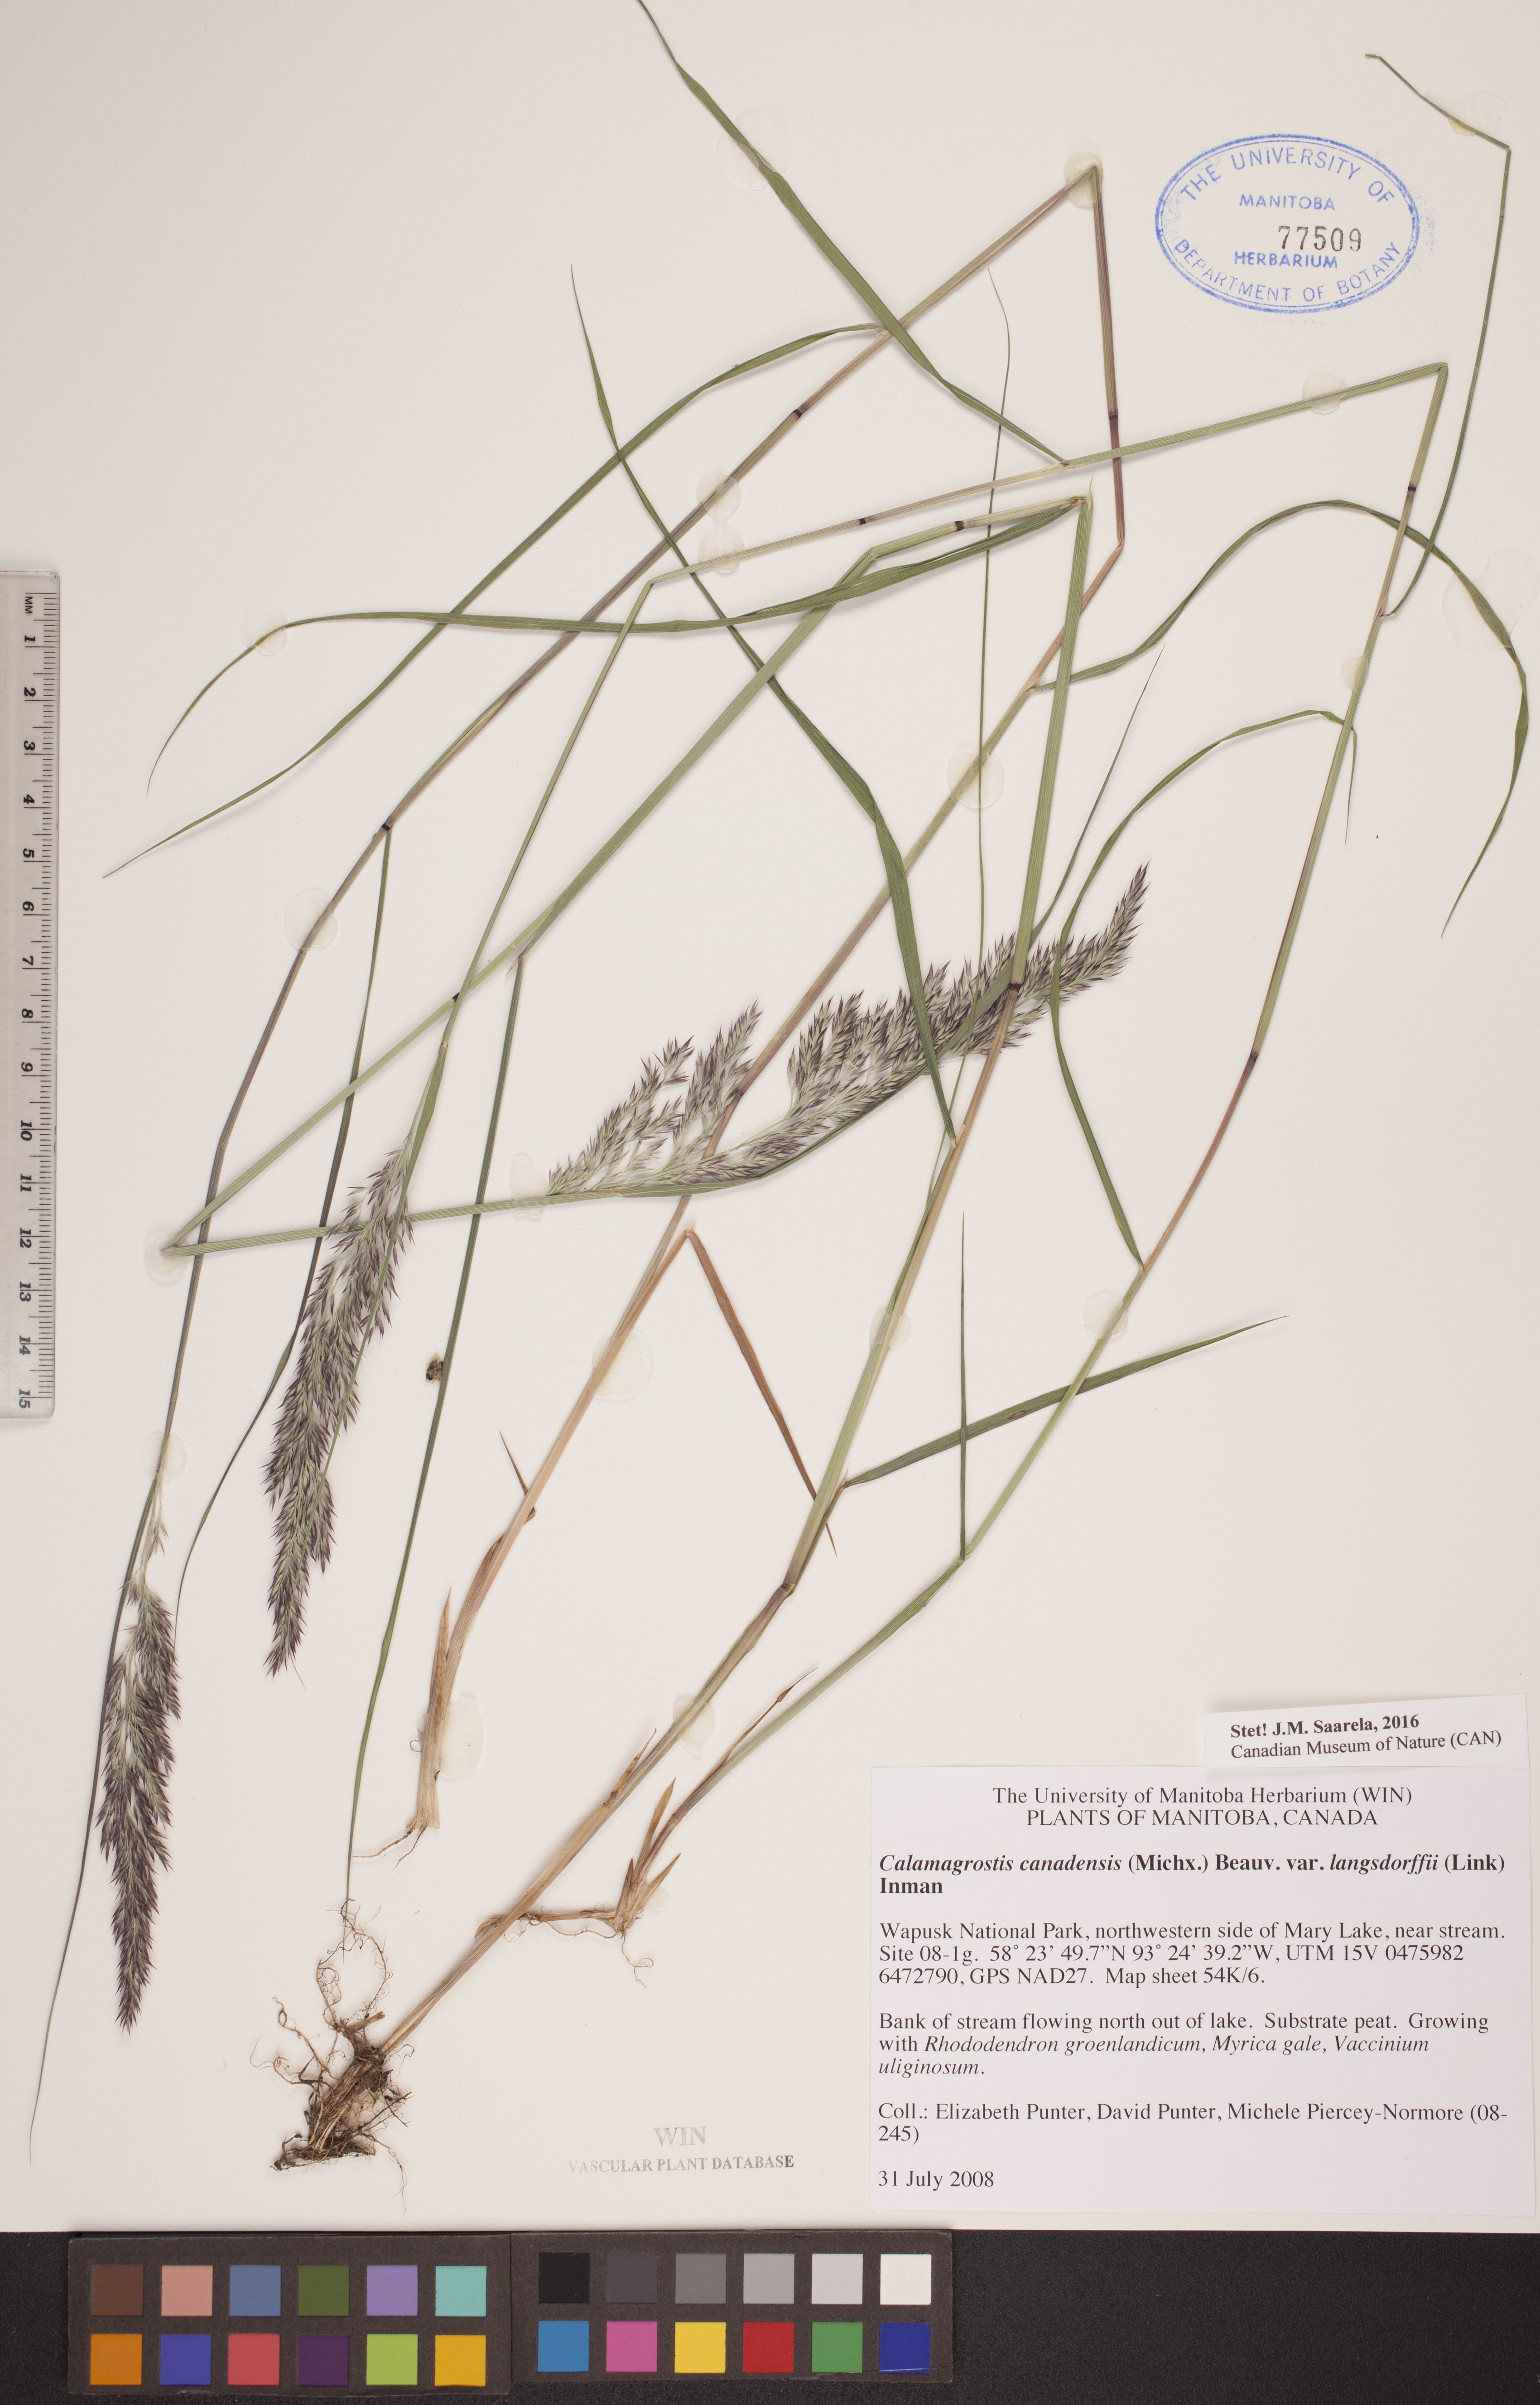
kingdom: Plantae
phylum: Tracheophyta
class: Liliopsida
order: Poales
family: Poaceae
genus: Calamagrostis
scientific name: Calamagrostis purpurea
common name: Scandinavian small-reed
